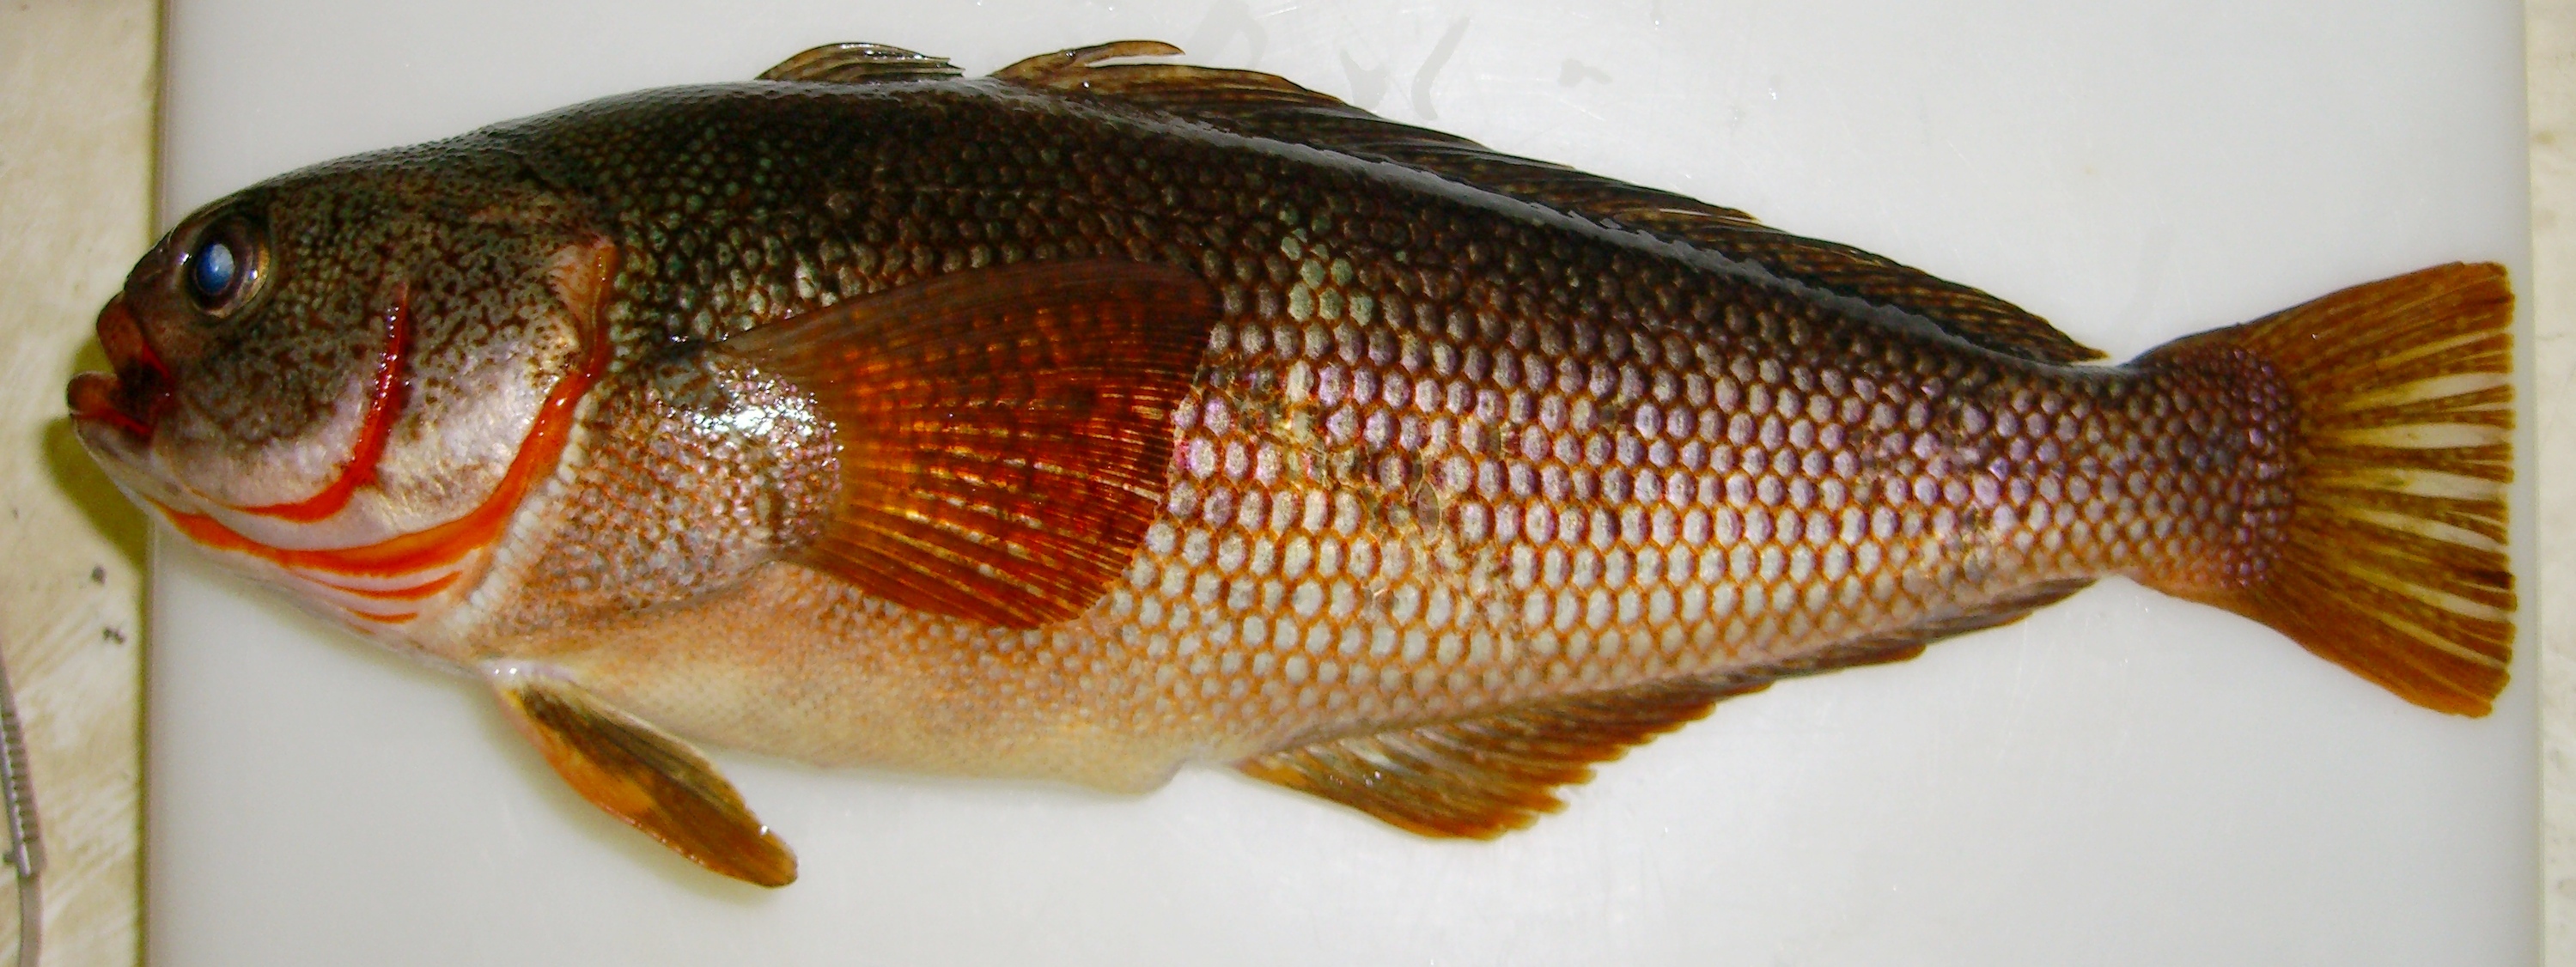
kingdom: Animalia
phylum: Chordata
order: Perciformes
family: Nototheniidae
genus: Paranotothenia
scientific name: Paranotothenia magellanica
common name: Magellanic rockcod
